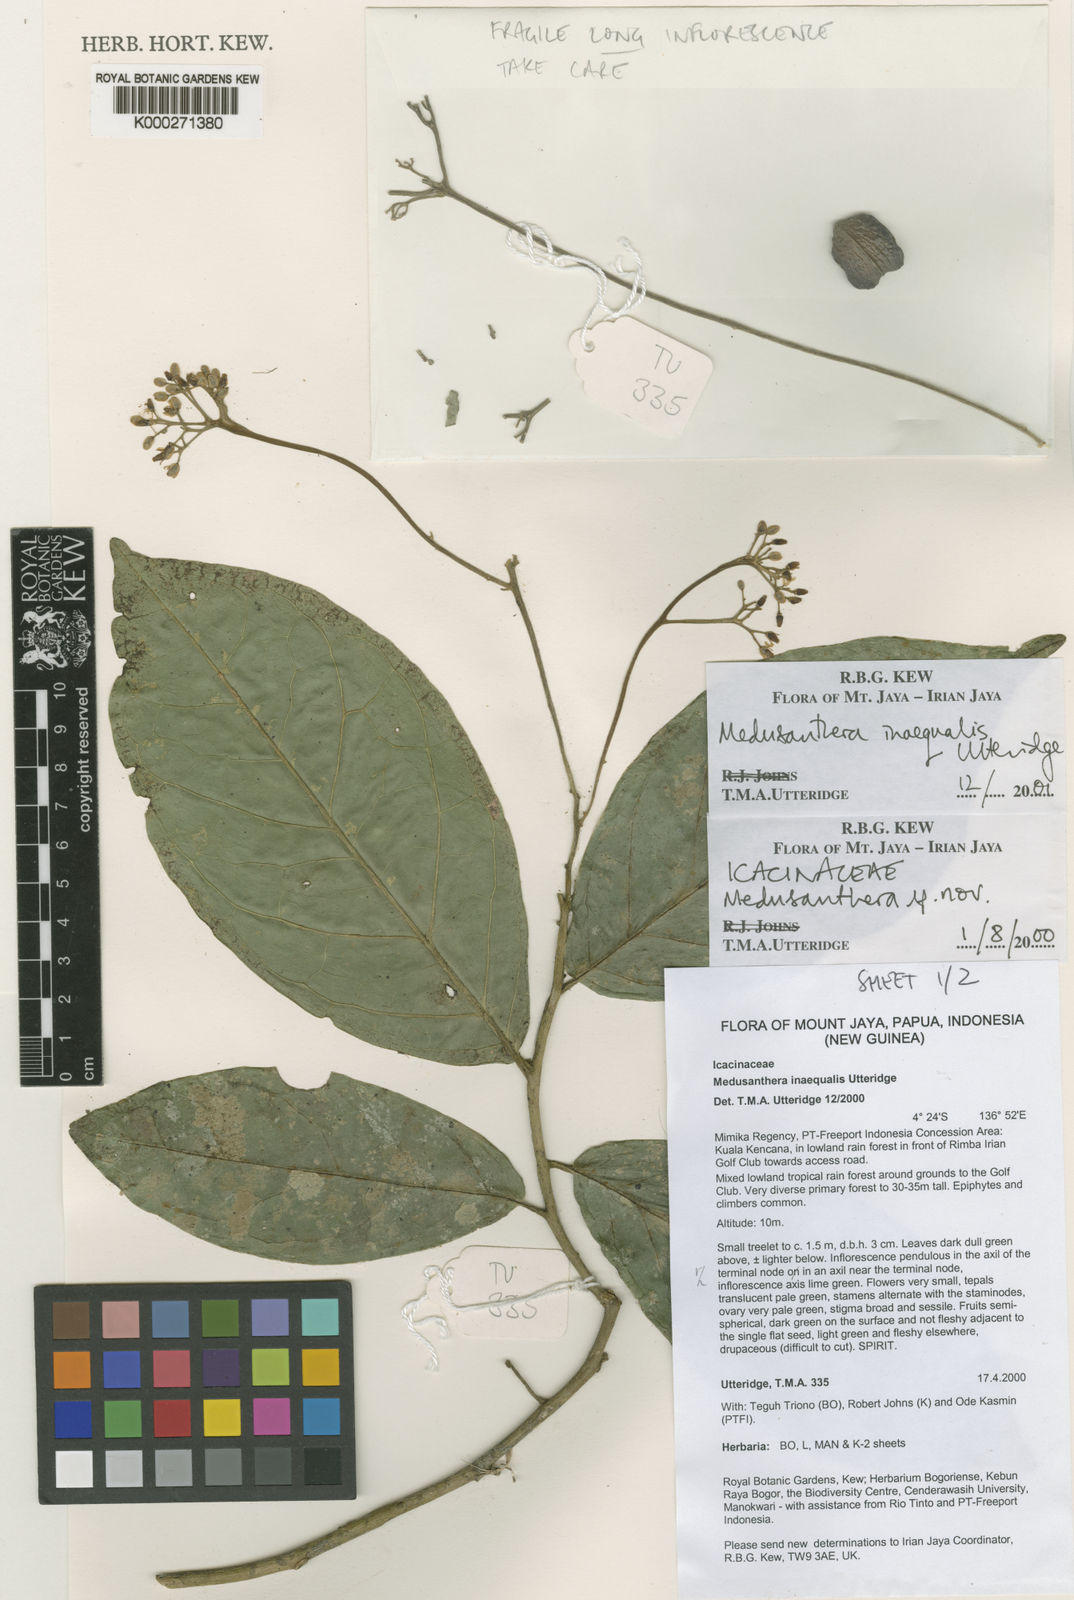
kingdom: Plantae
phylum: Tracheophyta
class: Magnoliopsida
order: Cardiopteridales
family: Stemonuraceae
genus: Medusanthera
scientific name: Medusanthera inaequalis
